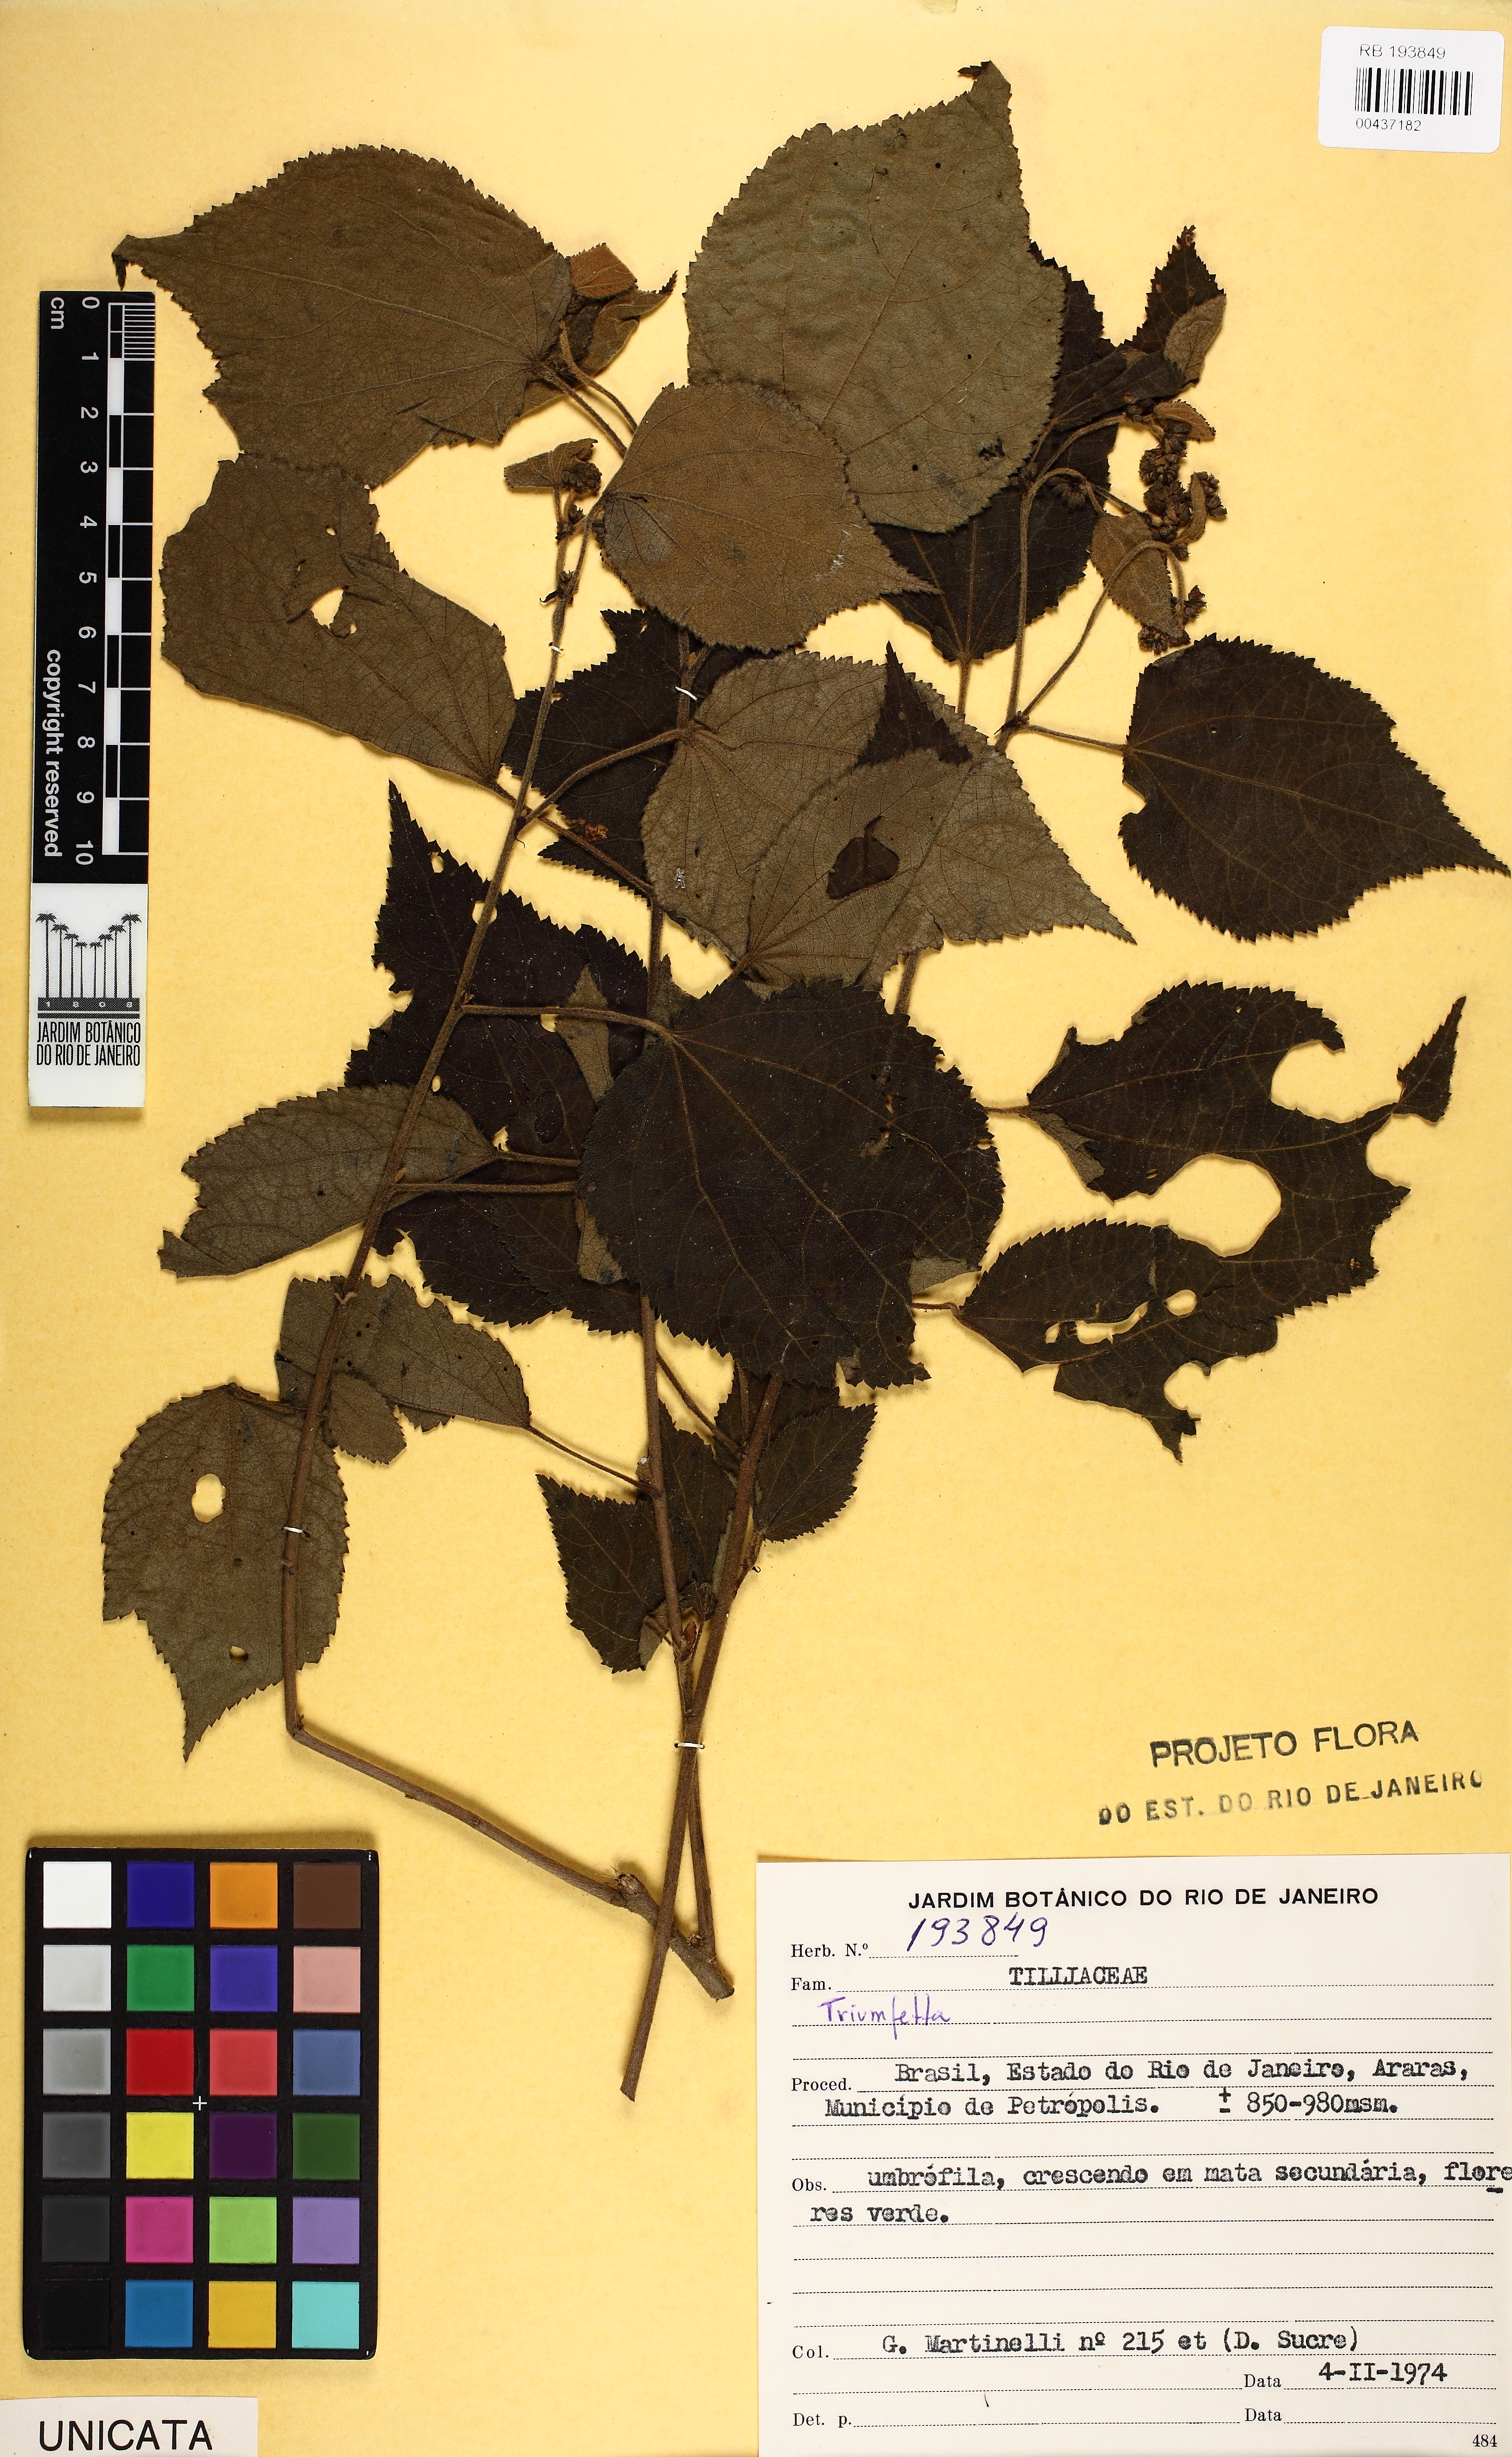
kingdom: Plantae
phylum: Tracheophyta
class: Magnoliopsida
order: Malvales
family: Malvaceae
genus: Triumfetta
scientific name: Triumfetta
